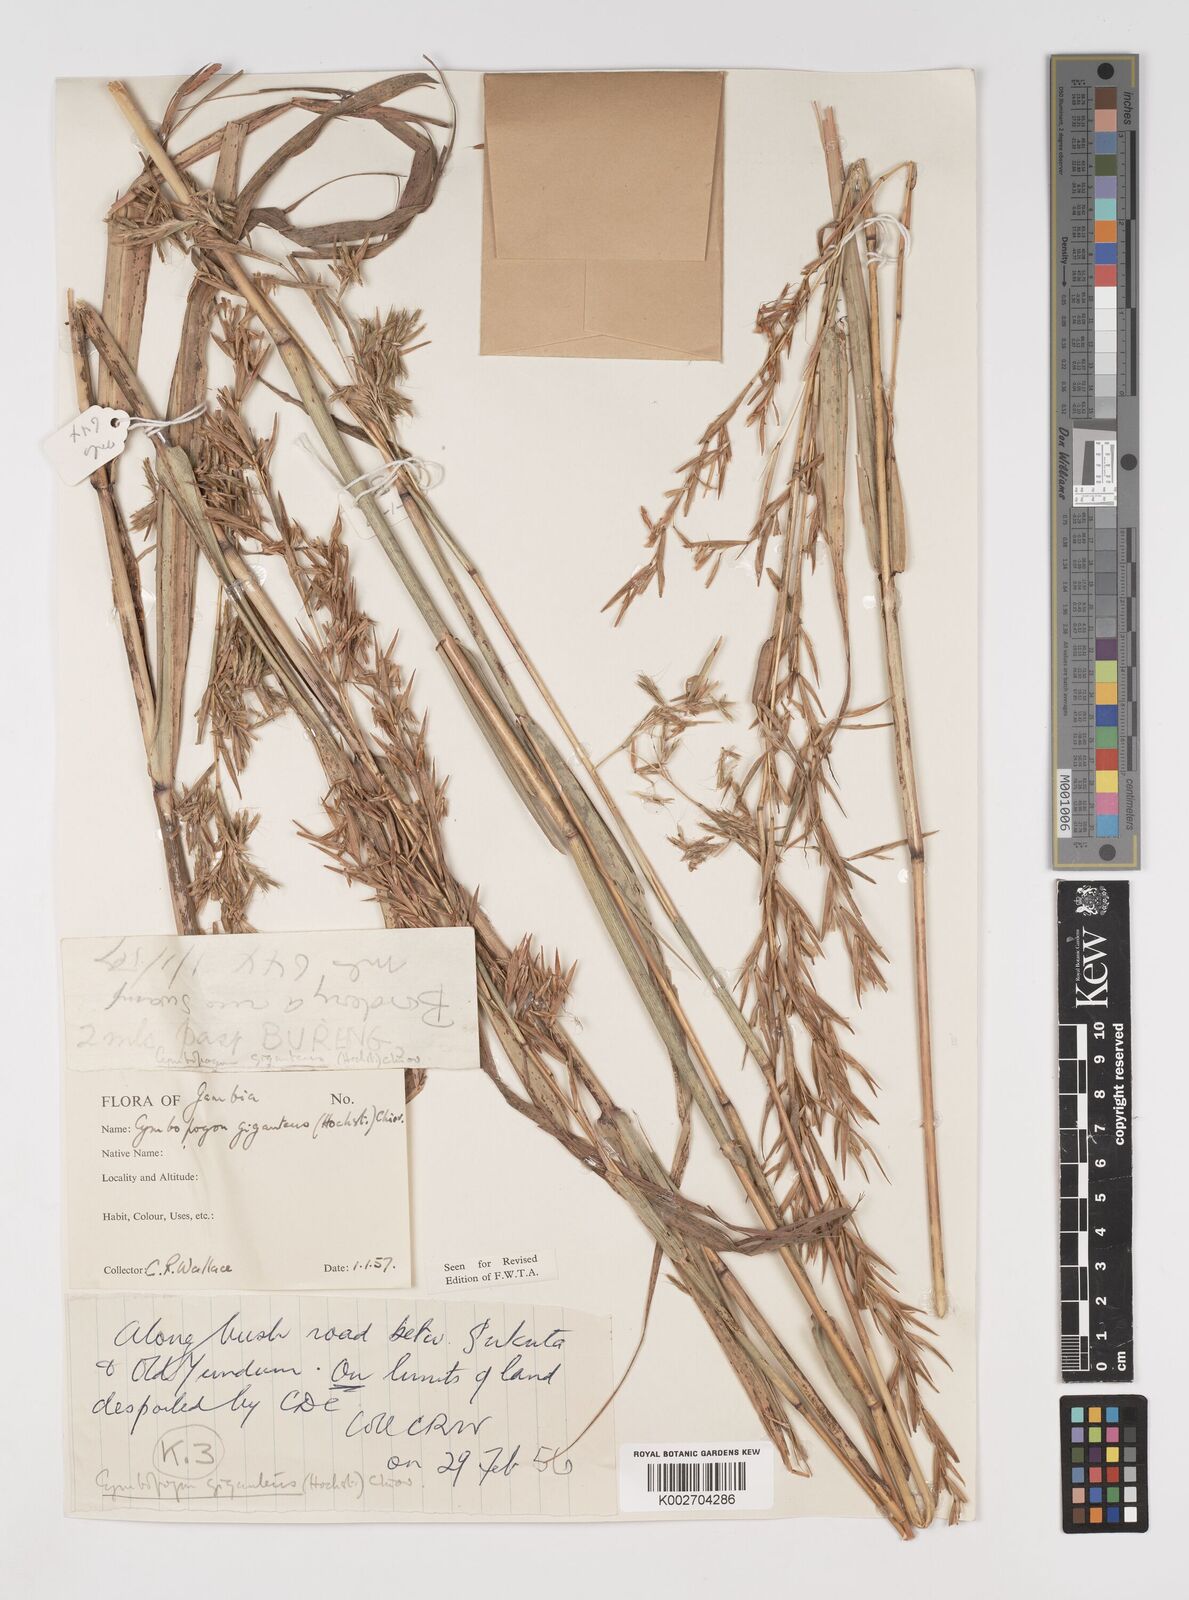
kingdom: Plantae
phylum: Tracheophyta
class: Liliopsida
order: Poales
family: Poaceae
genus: Cymbopogon
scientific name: Cymbopogon giganteus
